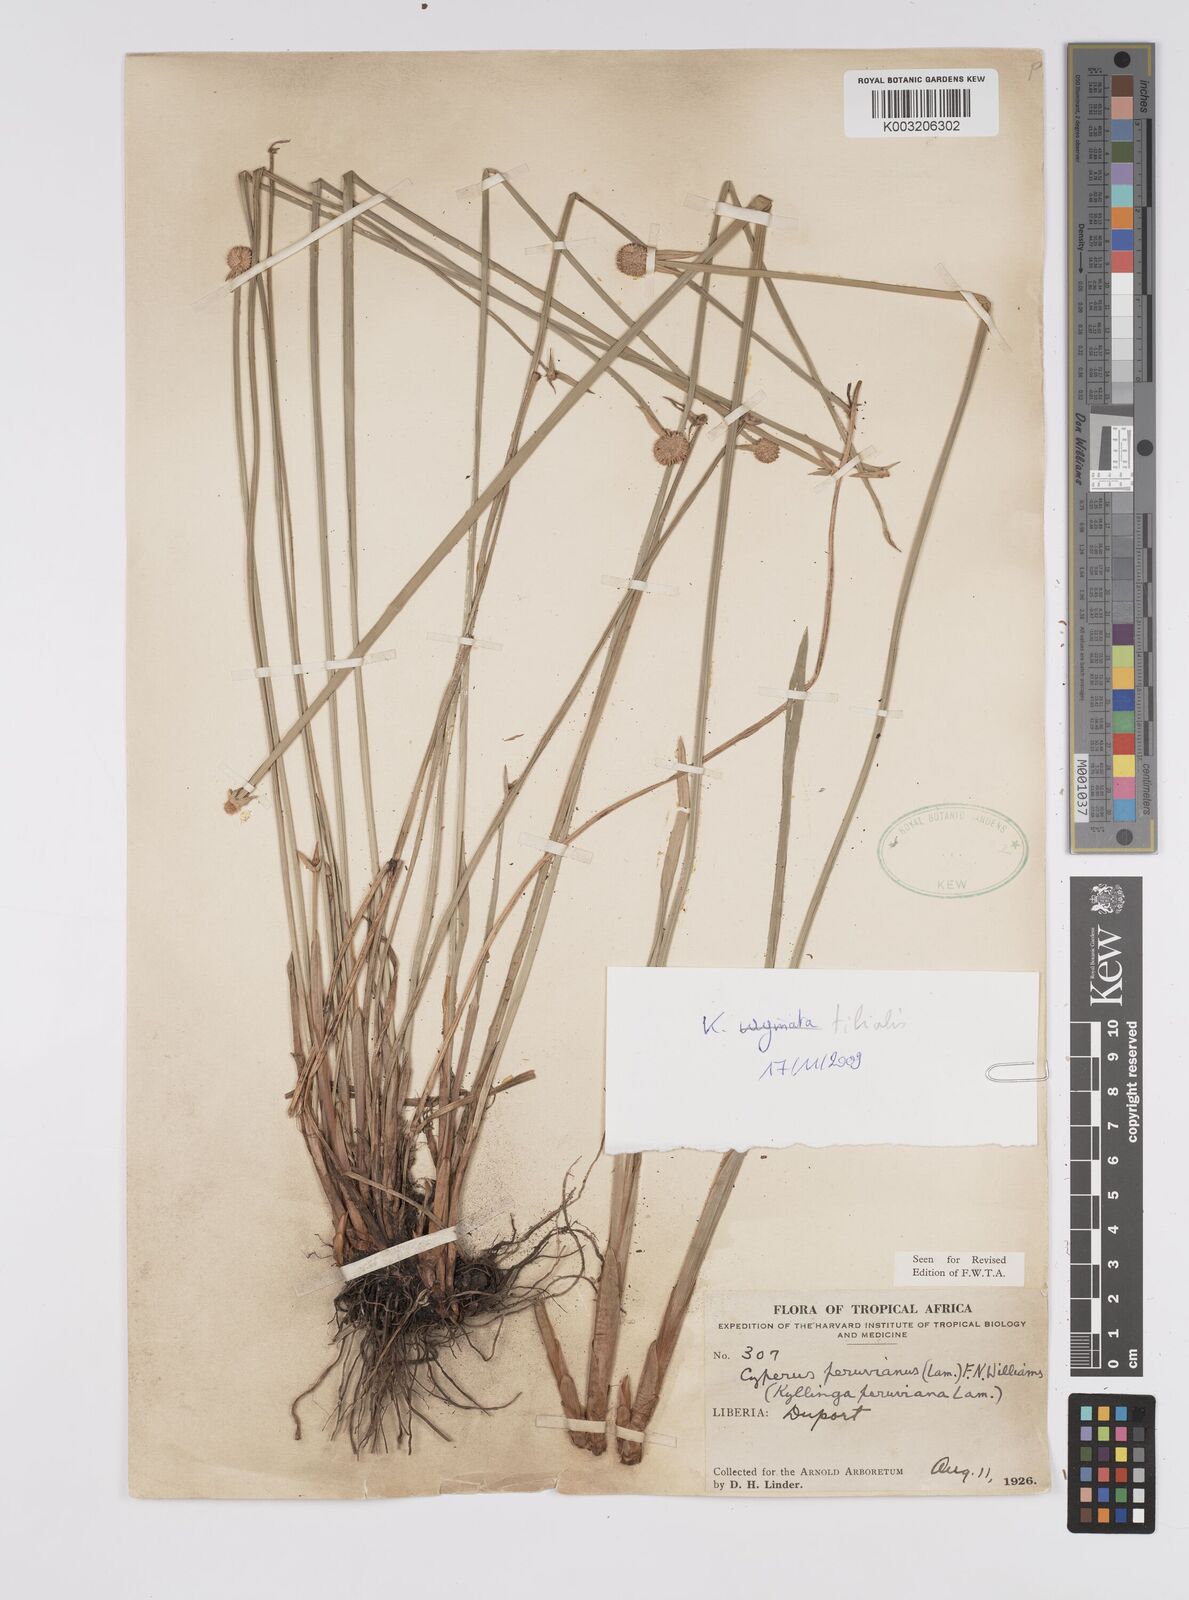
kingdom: Plantae
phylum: Tracheophyta
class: Liliopsida
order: Poales
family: Cyperaceae
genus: Cyperus
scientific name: Cyperus obtusatus
